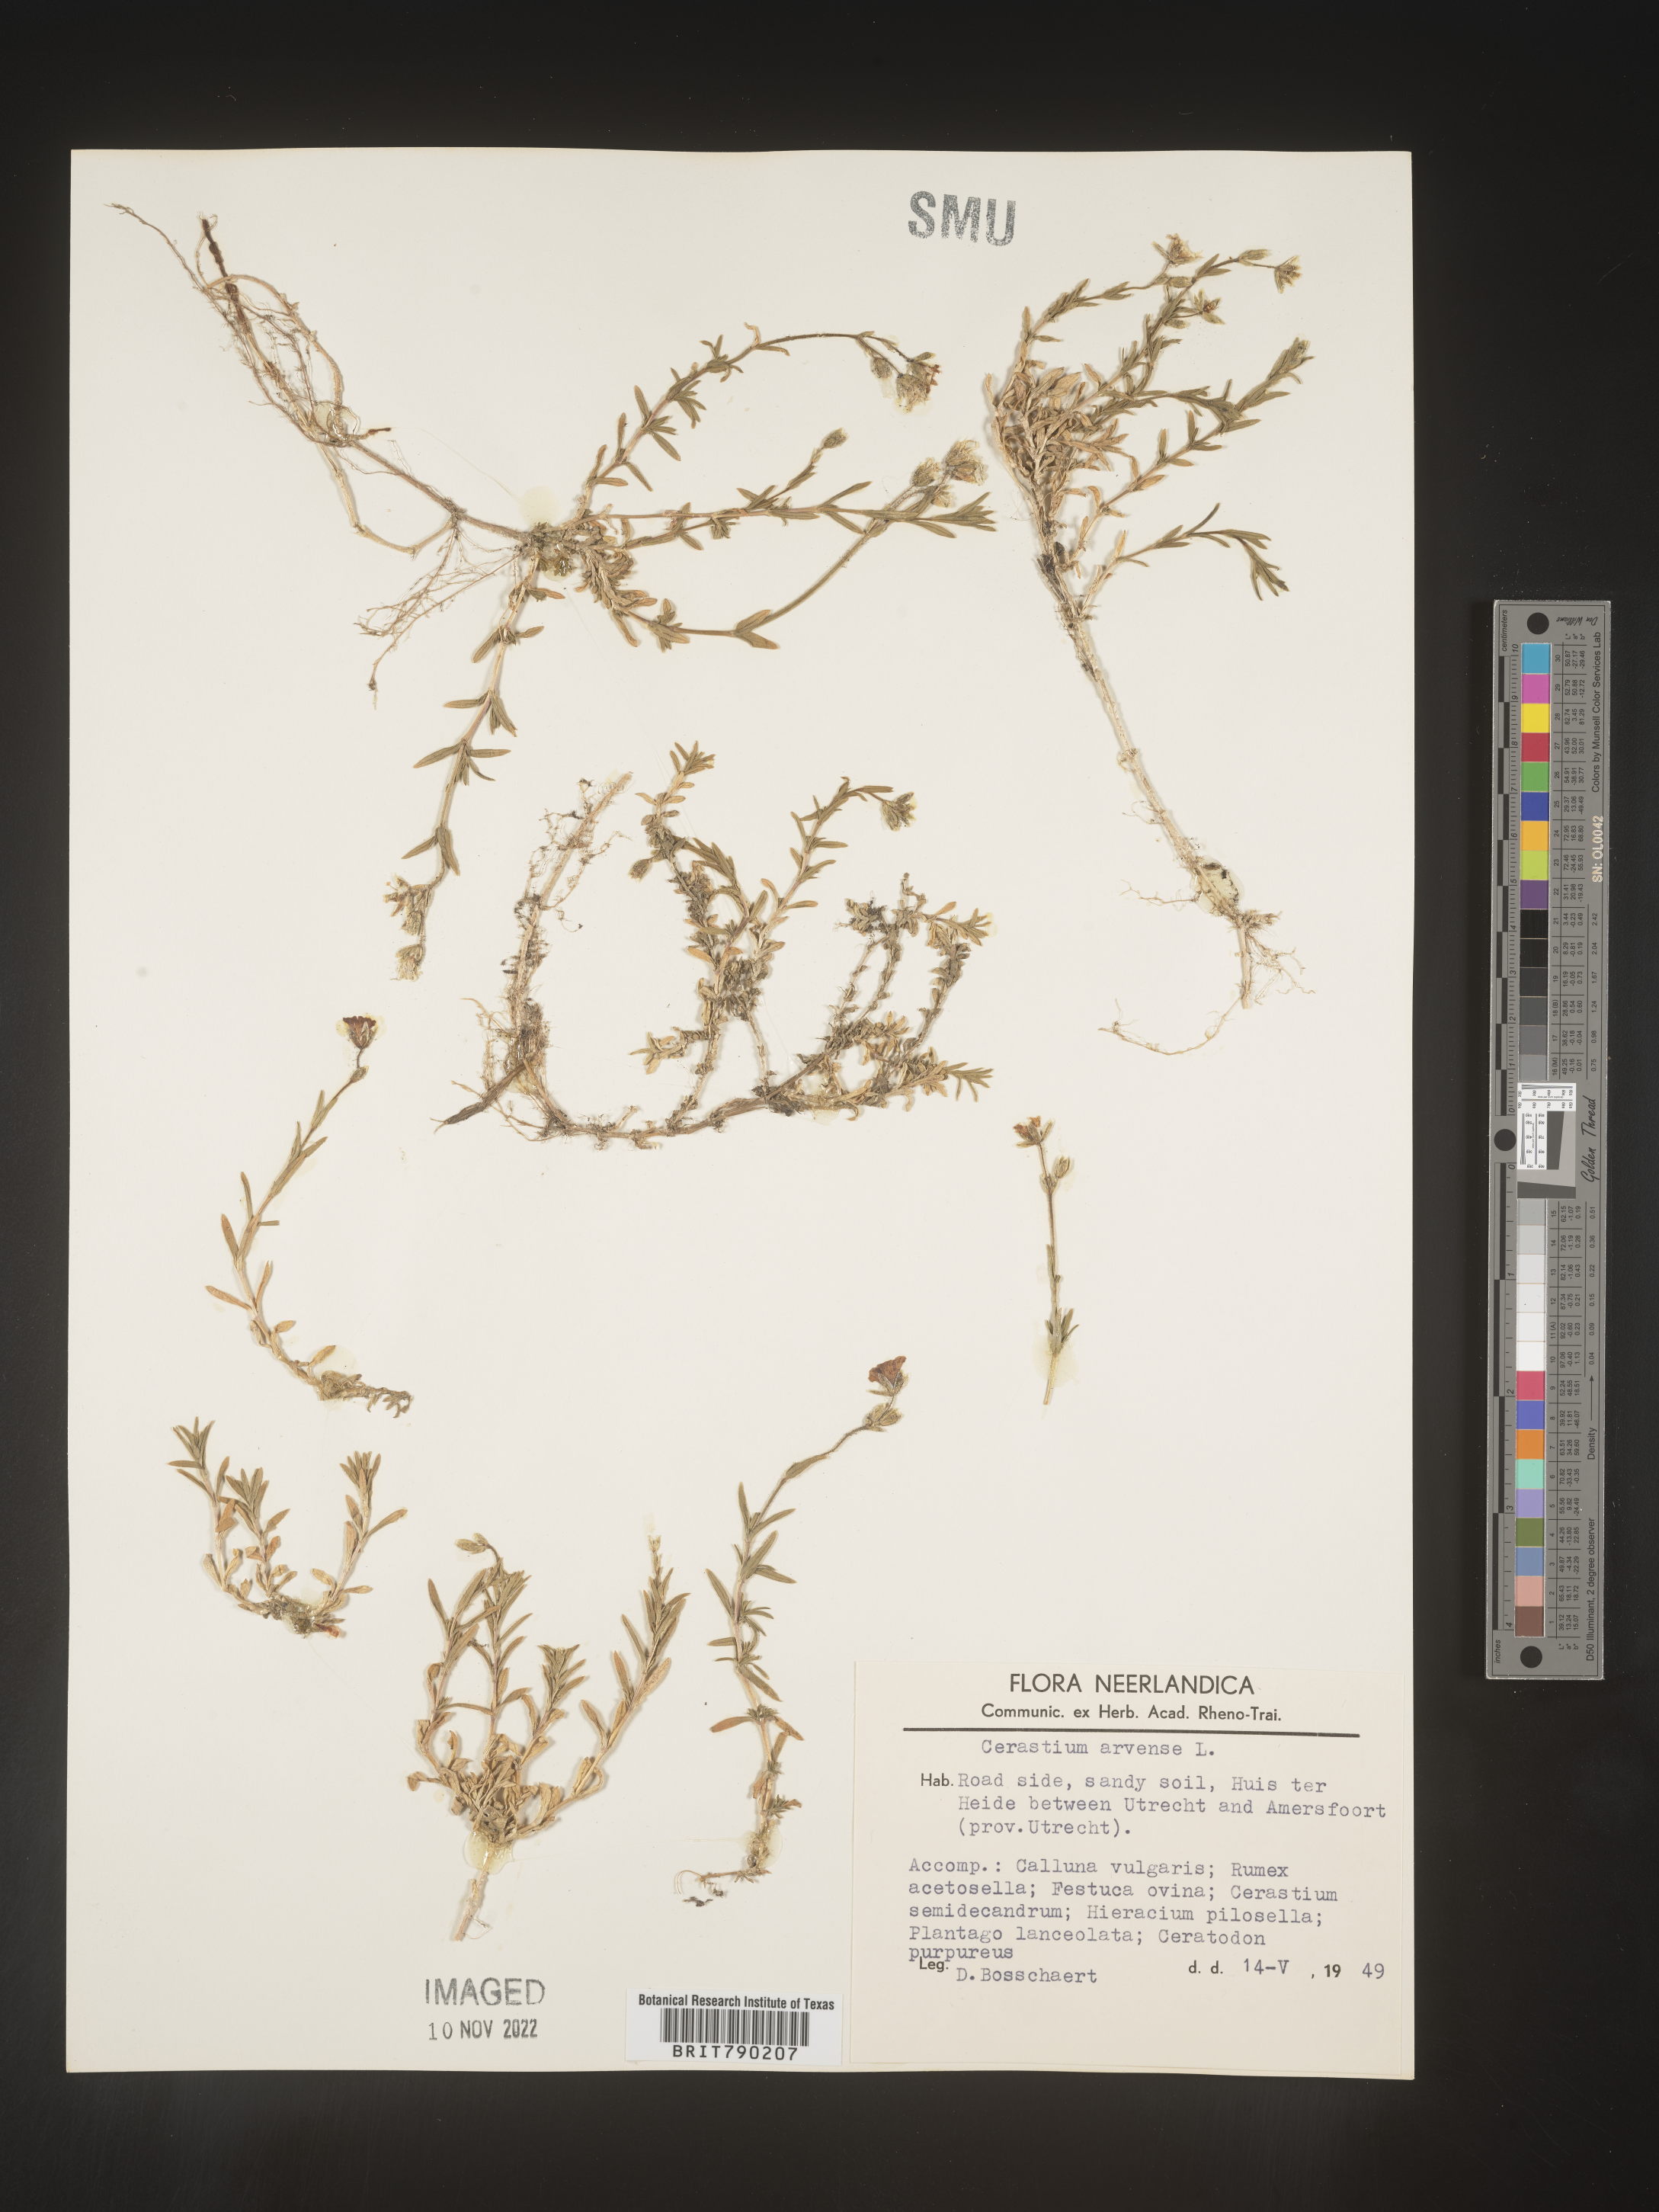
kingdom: Plantae
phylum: Tracheophyta
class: Magnoliopsida
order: Caryophyllales
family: Caryophyllaceae
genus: Cerastium
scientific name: Cerastium
